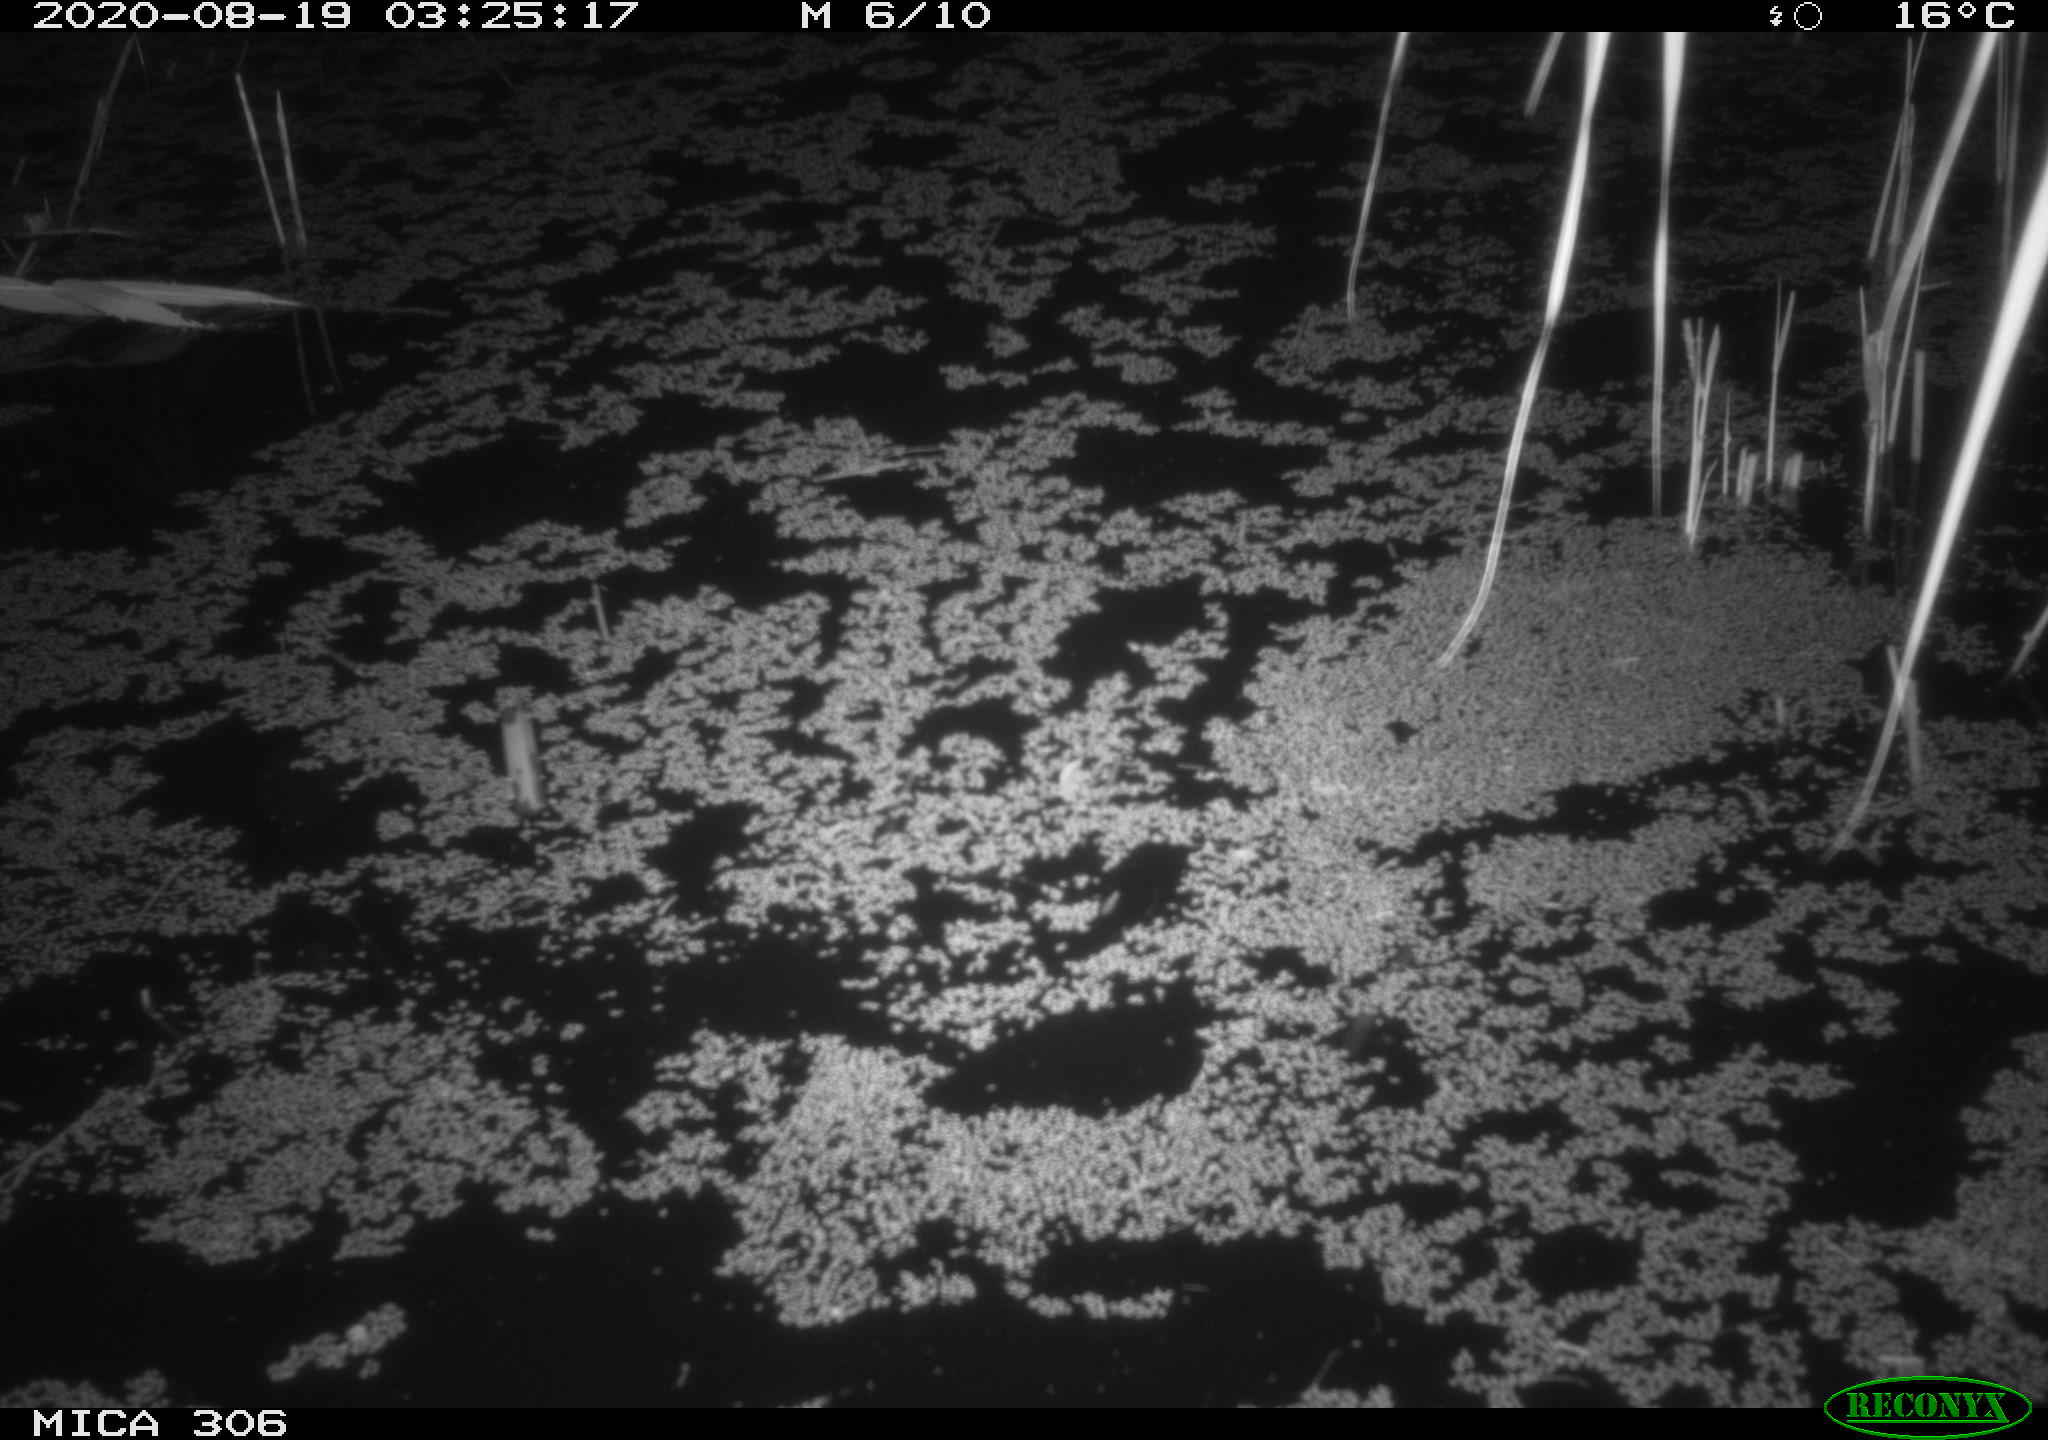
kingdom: Animalia
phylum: Chordata
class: Mammalia
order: Rodentia
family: Muridae
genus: Rattus
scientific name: Rattus norvegicus
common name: Brown rat
